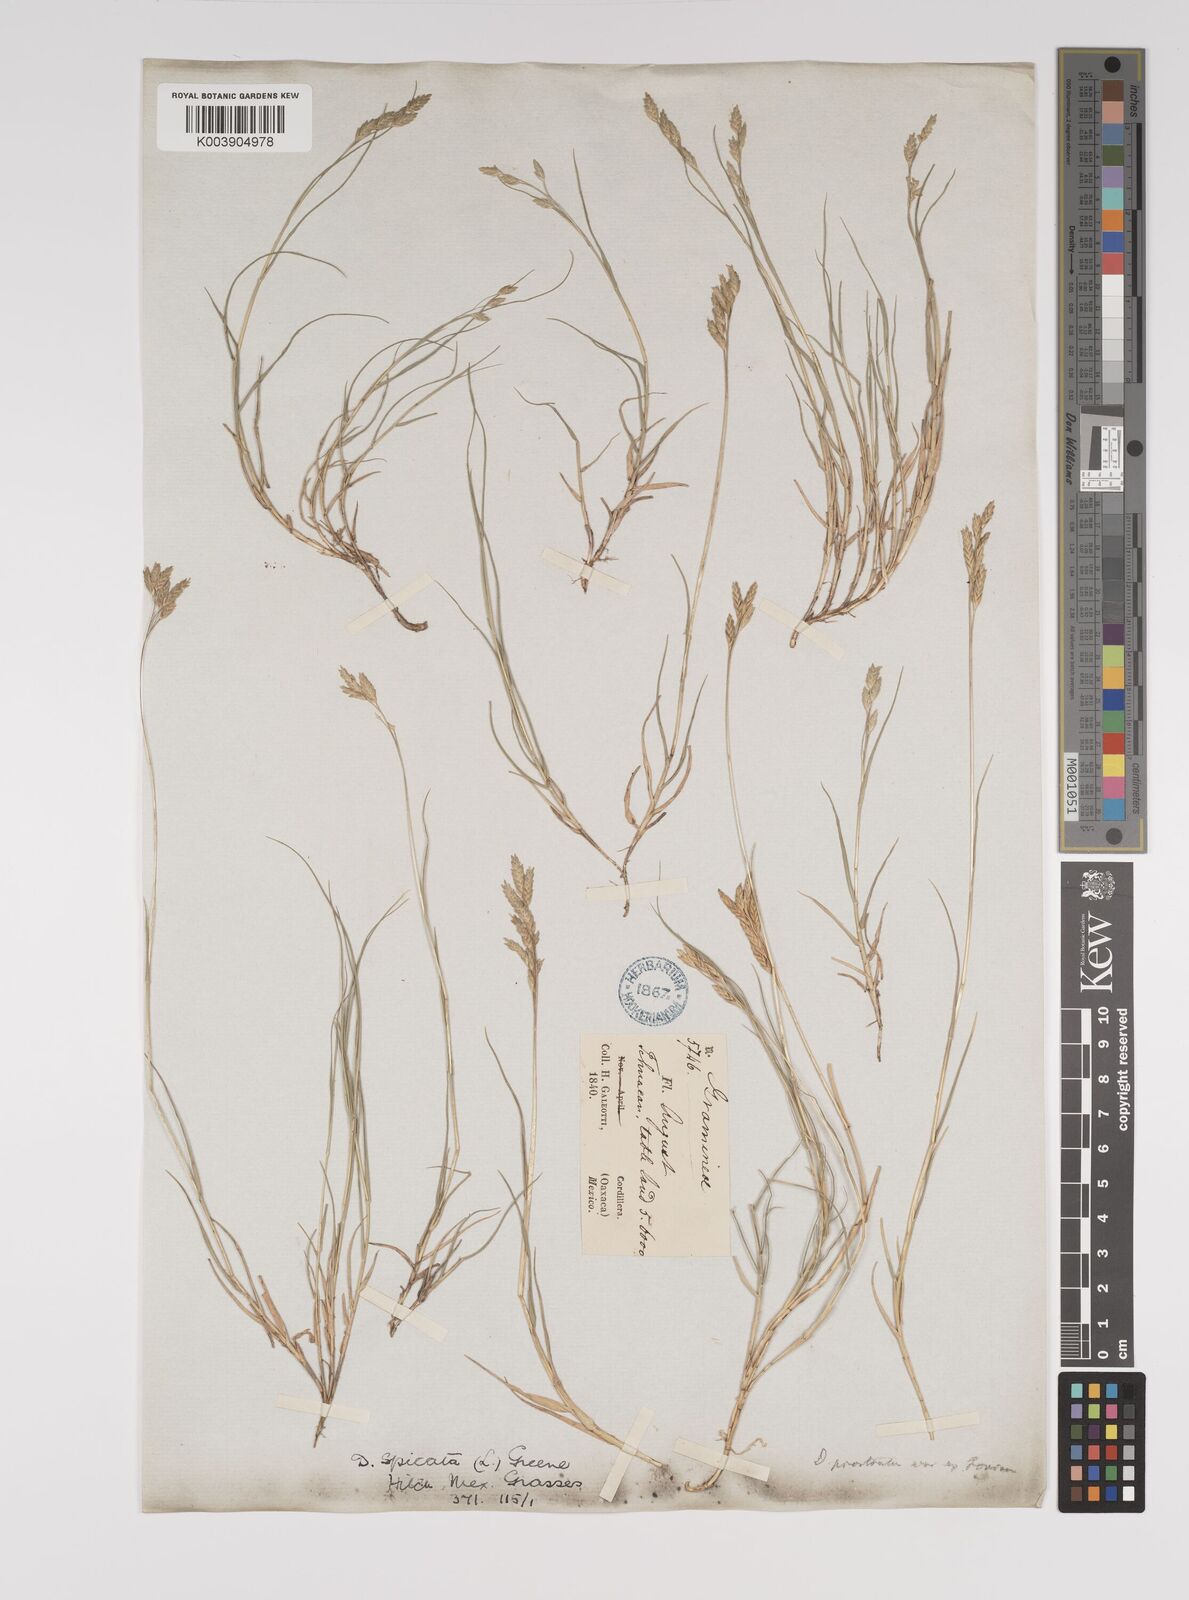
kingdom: Plantae
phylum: Tracheophyta
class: Liliopsida
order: Poales
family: Poaceae
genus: Distichlis
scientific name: Distichlis spicata
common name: Saltgrass
